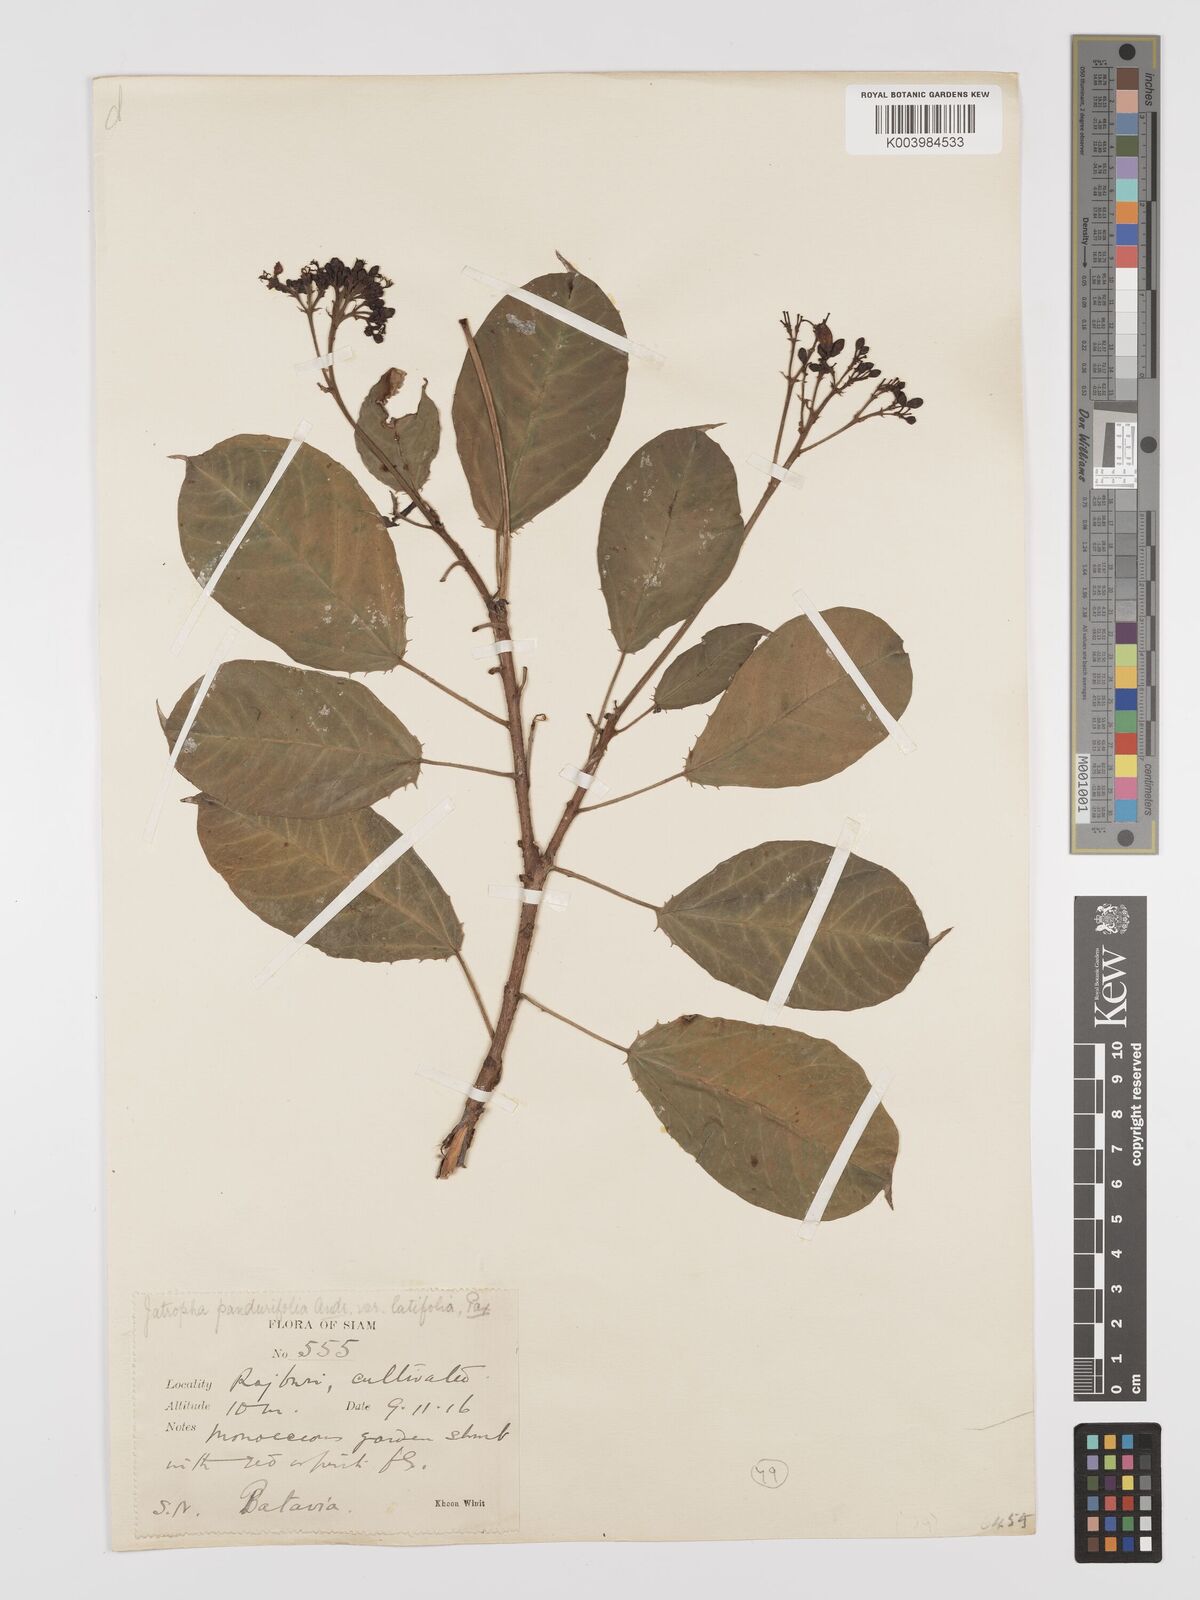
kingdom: Plantae
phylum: Tracheophyta
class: Magnoliopsida
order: Malpighiales
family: Euphorbiaceae
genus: Jatropha
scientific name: Jatropha integerrima
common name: Peregrina
